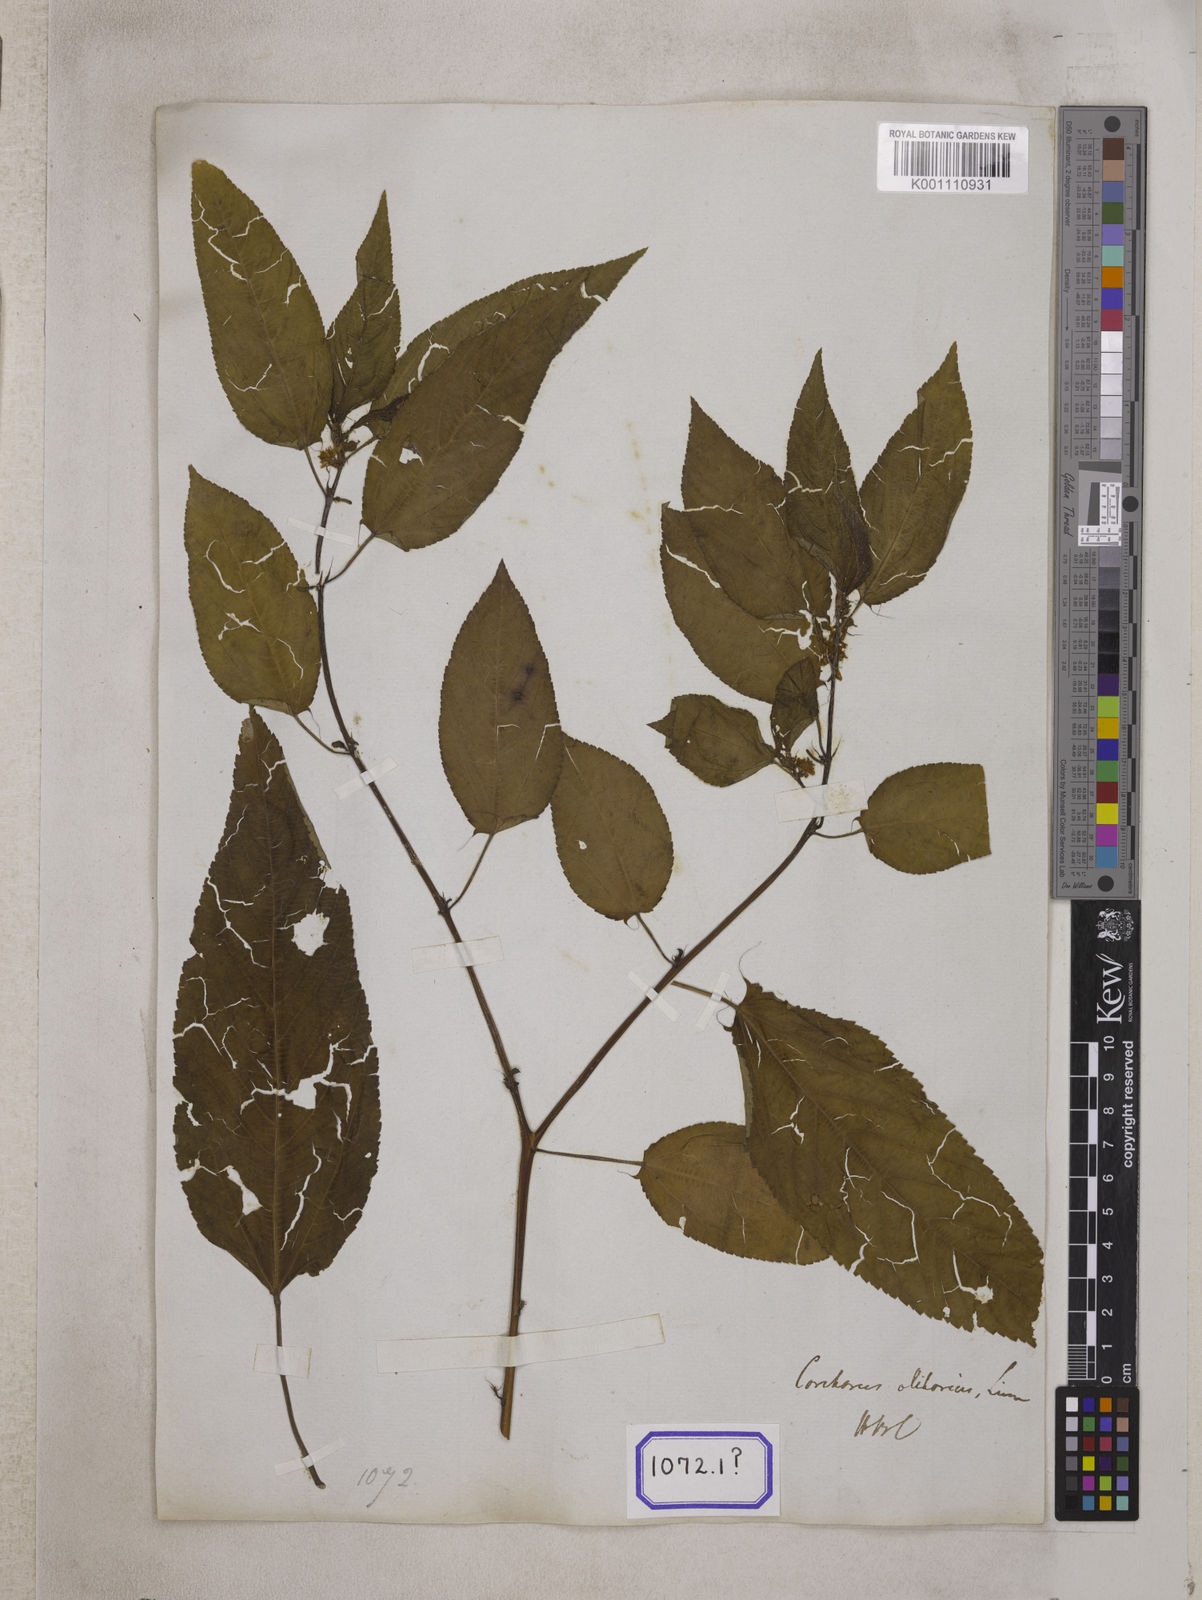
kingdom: Plantae
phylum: Tracheophyta
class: Magnoliopsida
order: Malvales
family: Malvaceae
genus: Corchorus
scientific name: Corchorus olitorius
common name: Tossa jute
